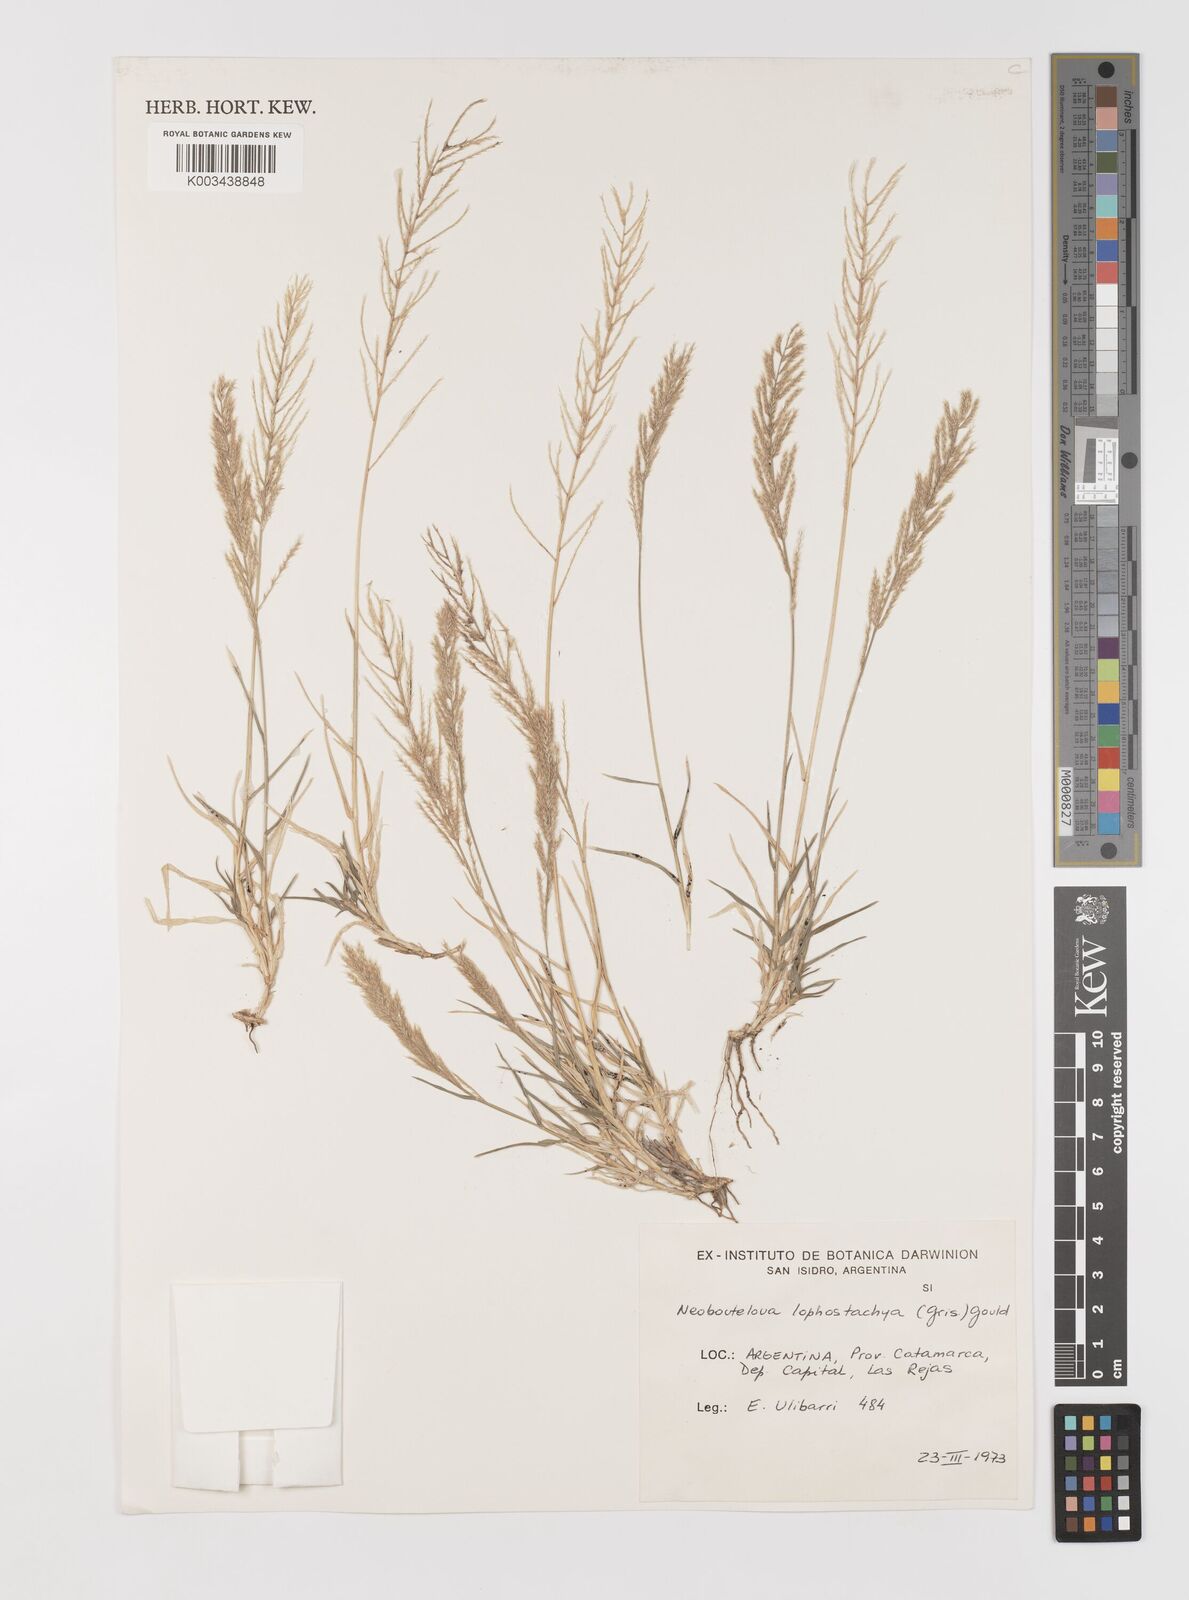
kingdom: Plantae
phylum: Tracheophyta
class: Liliopsida
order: Poales
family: Poaceae
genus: Neobouteloua
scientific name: Neobouteloua lophostachya
